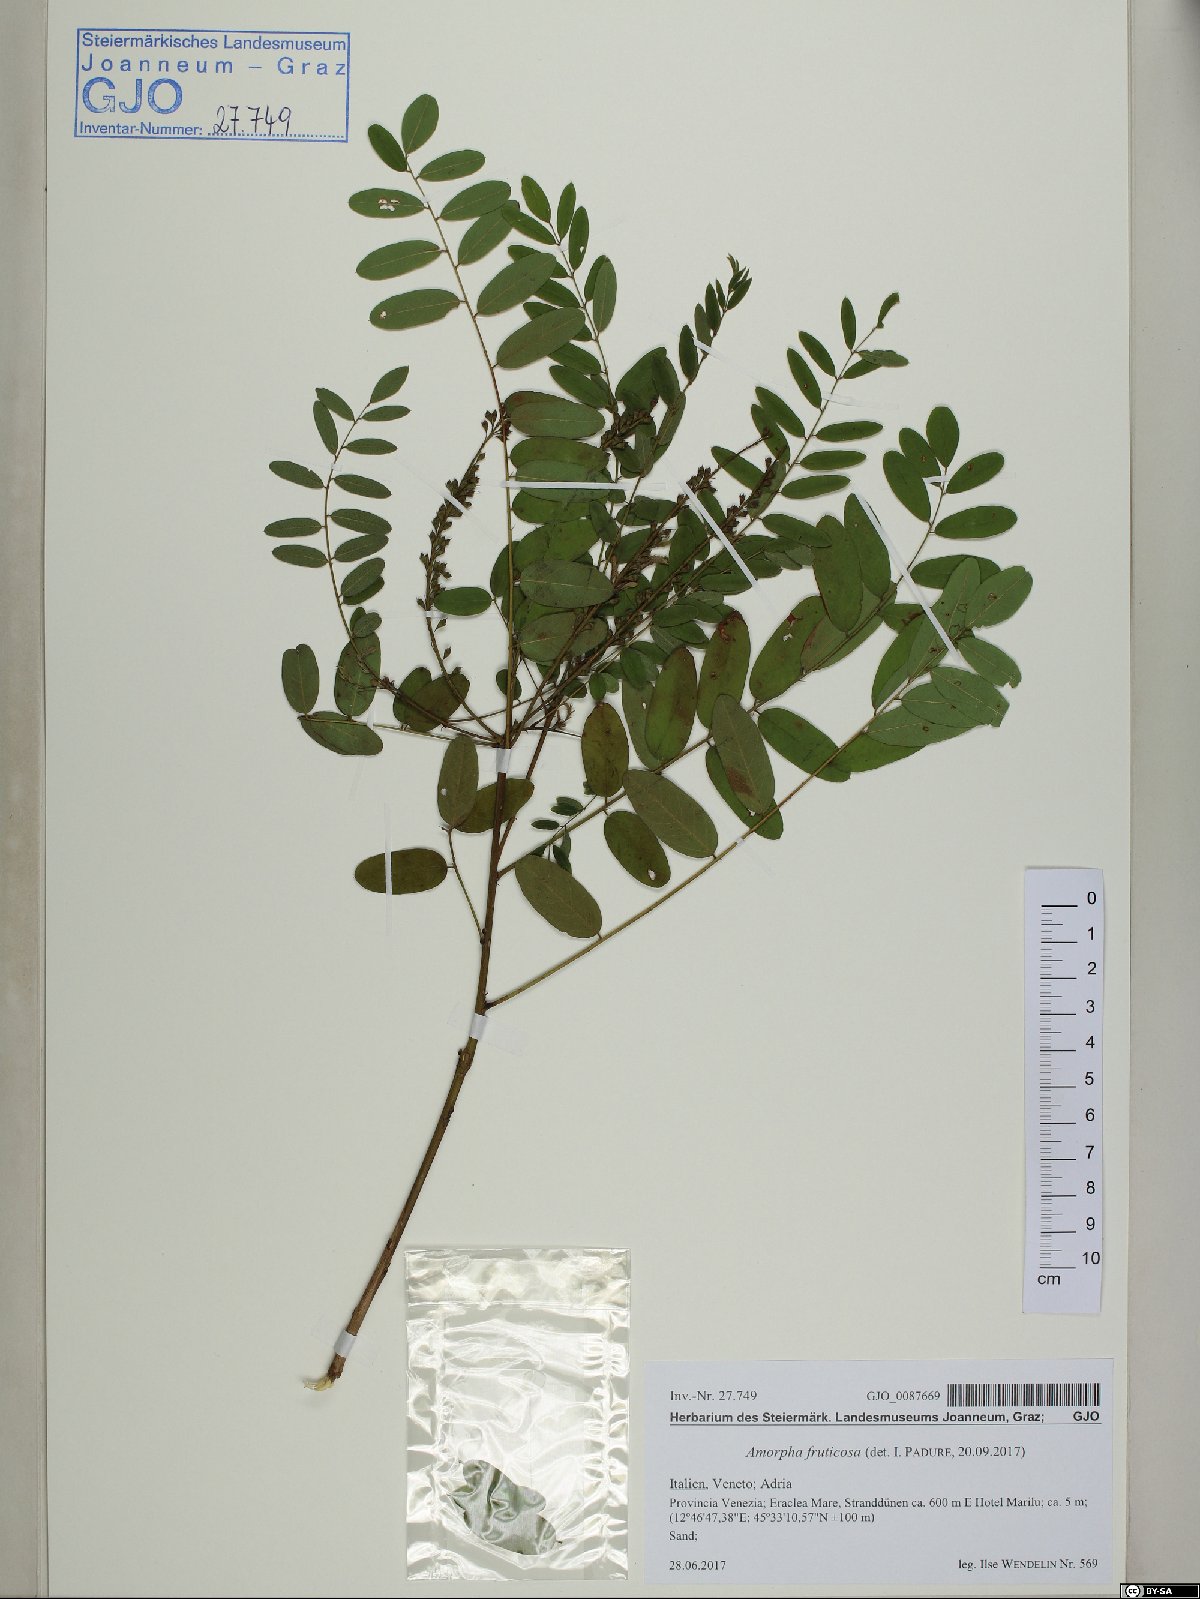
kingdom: Plantae
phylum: Tracheophyta
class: Magnoliopsida
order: Fabales
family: Fabaceae
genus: Amorpha
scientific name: Amorpha fruticosa
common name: False indigo
